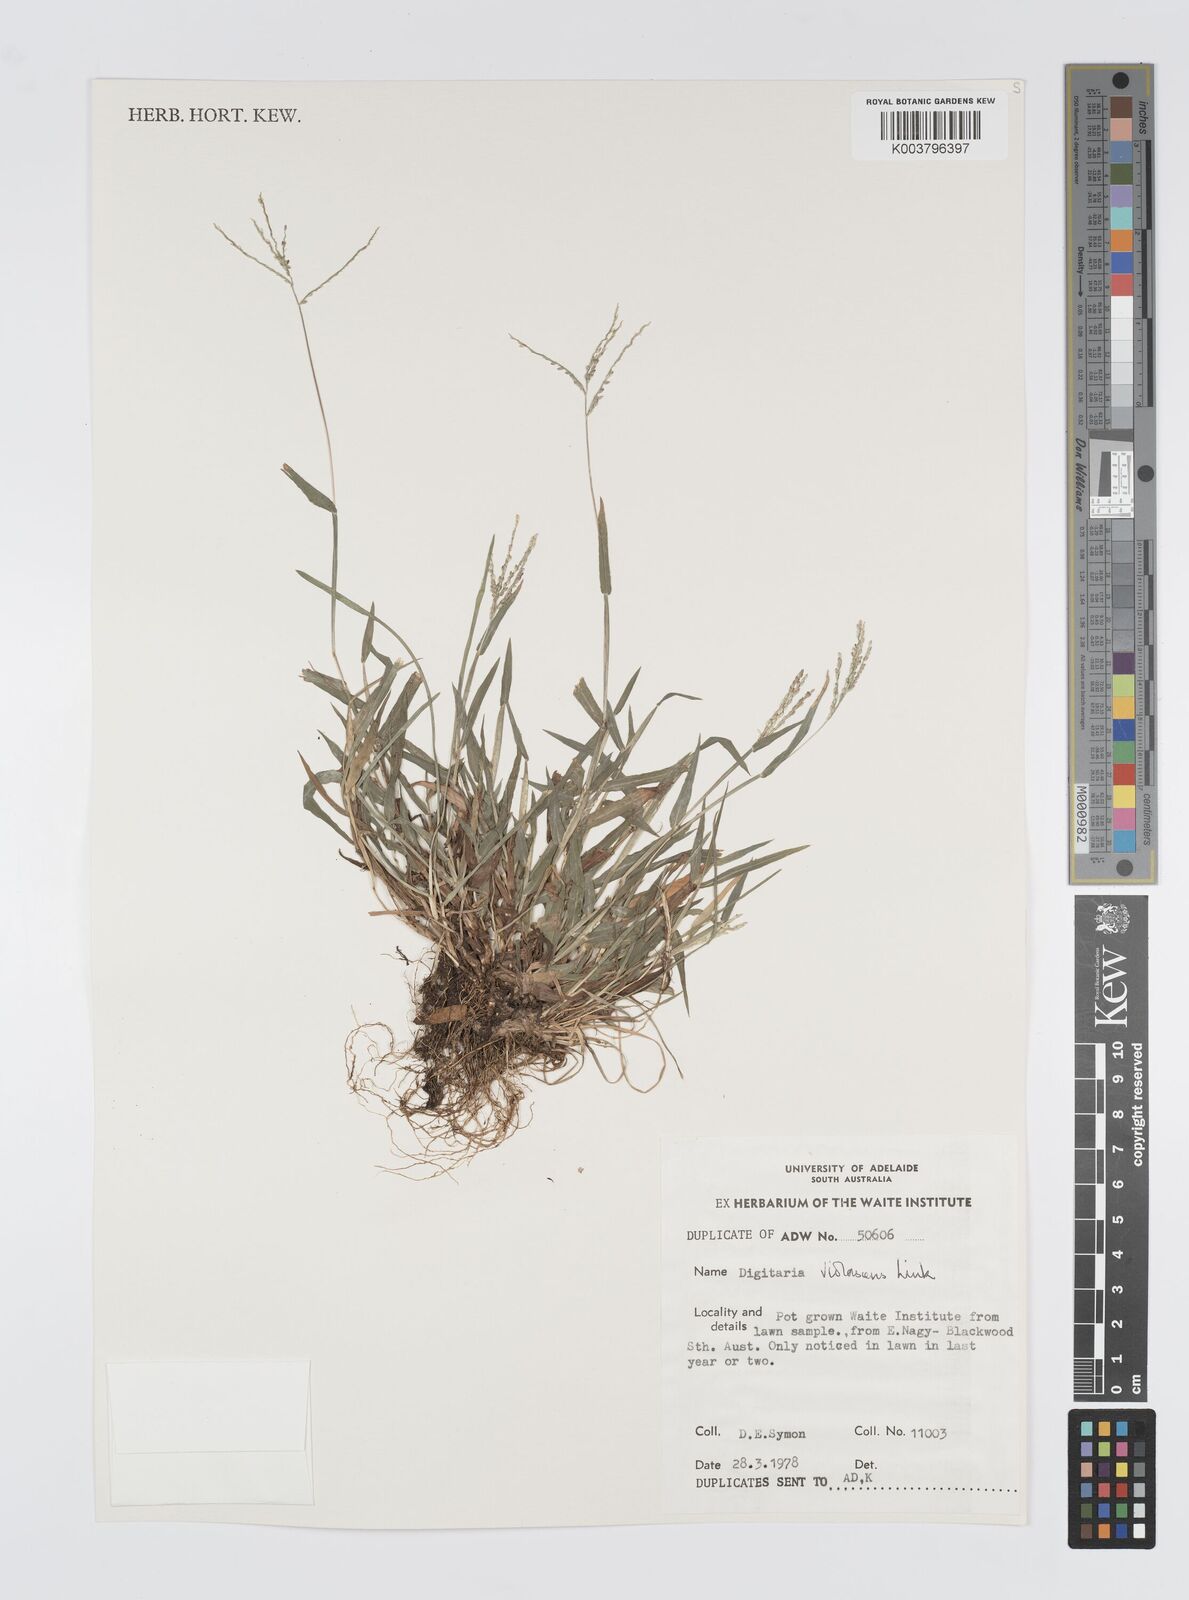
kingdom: Plantae
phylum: Tracheophyta
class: Liliopsida
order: Poales
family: Poaceae
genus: Digitaria
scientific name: Digitaria violascens
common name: Violet crabgrass
